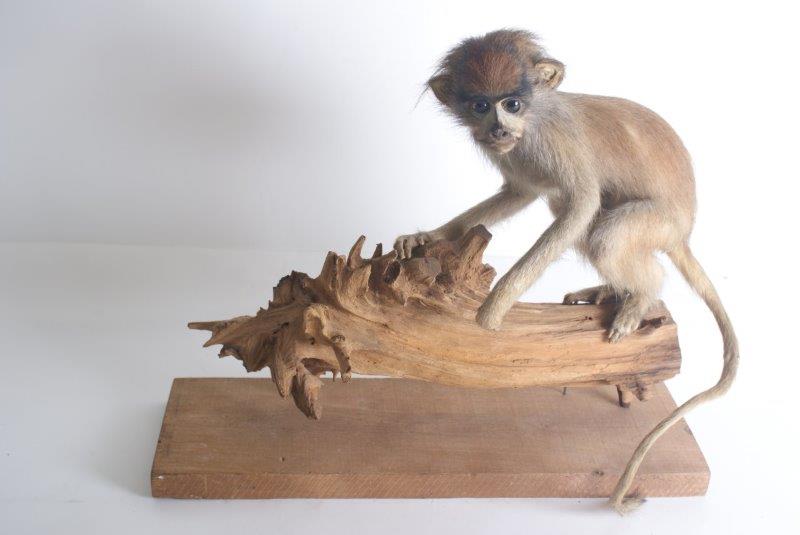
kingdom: Animalia
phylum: Chordata
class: Mammalia
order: Primates
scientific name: Primates
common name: Primates
